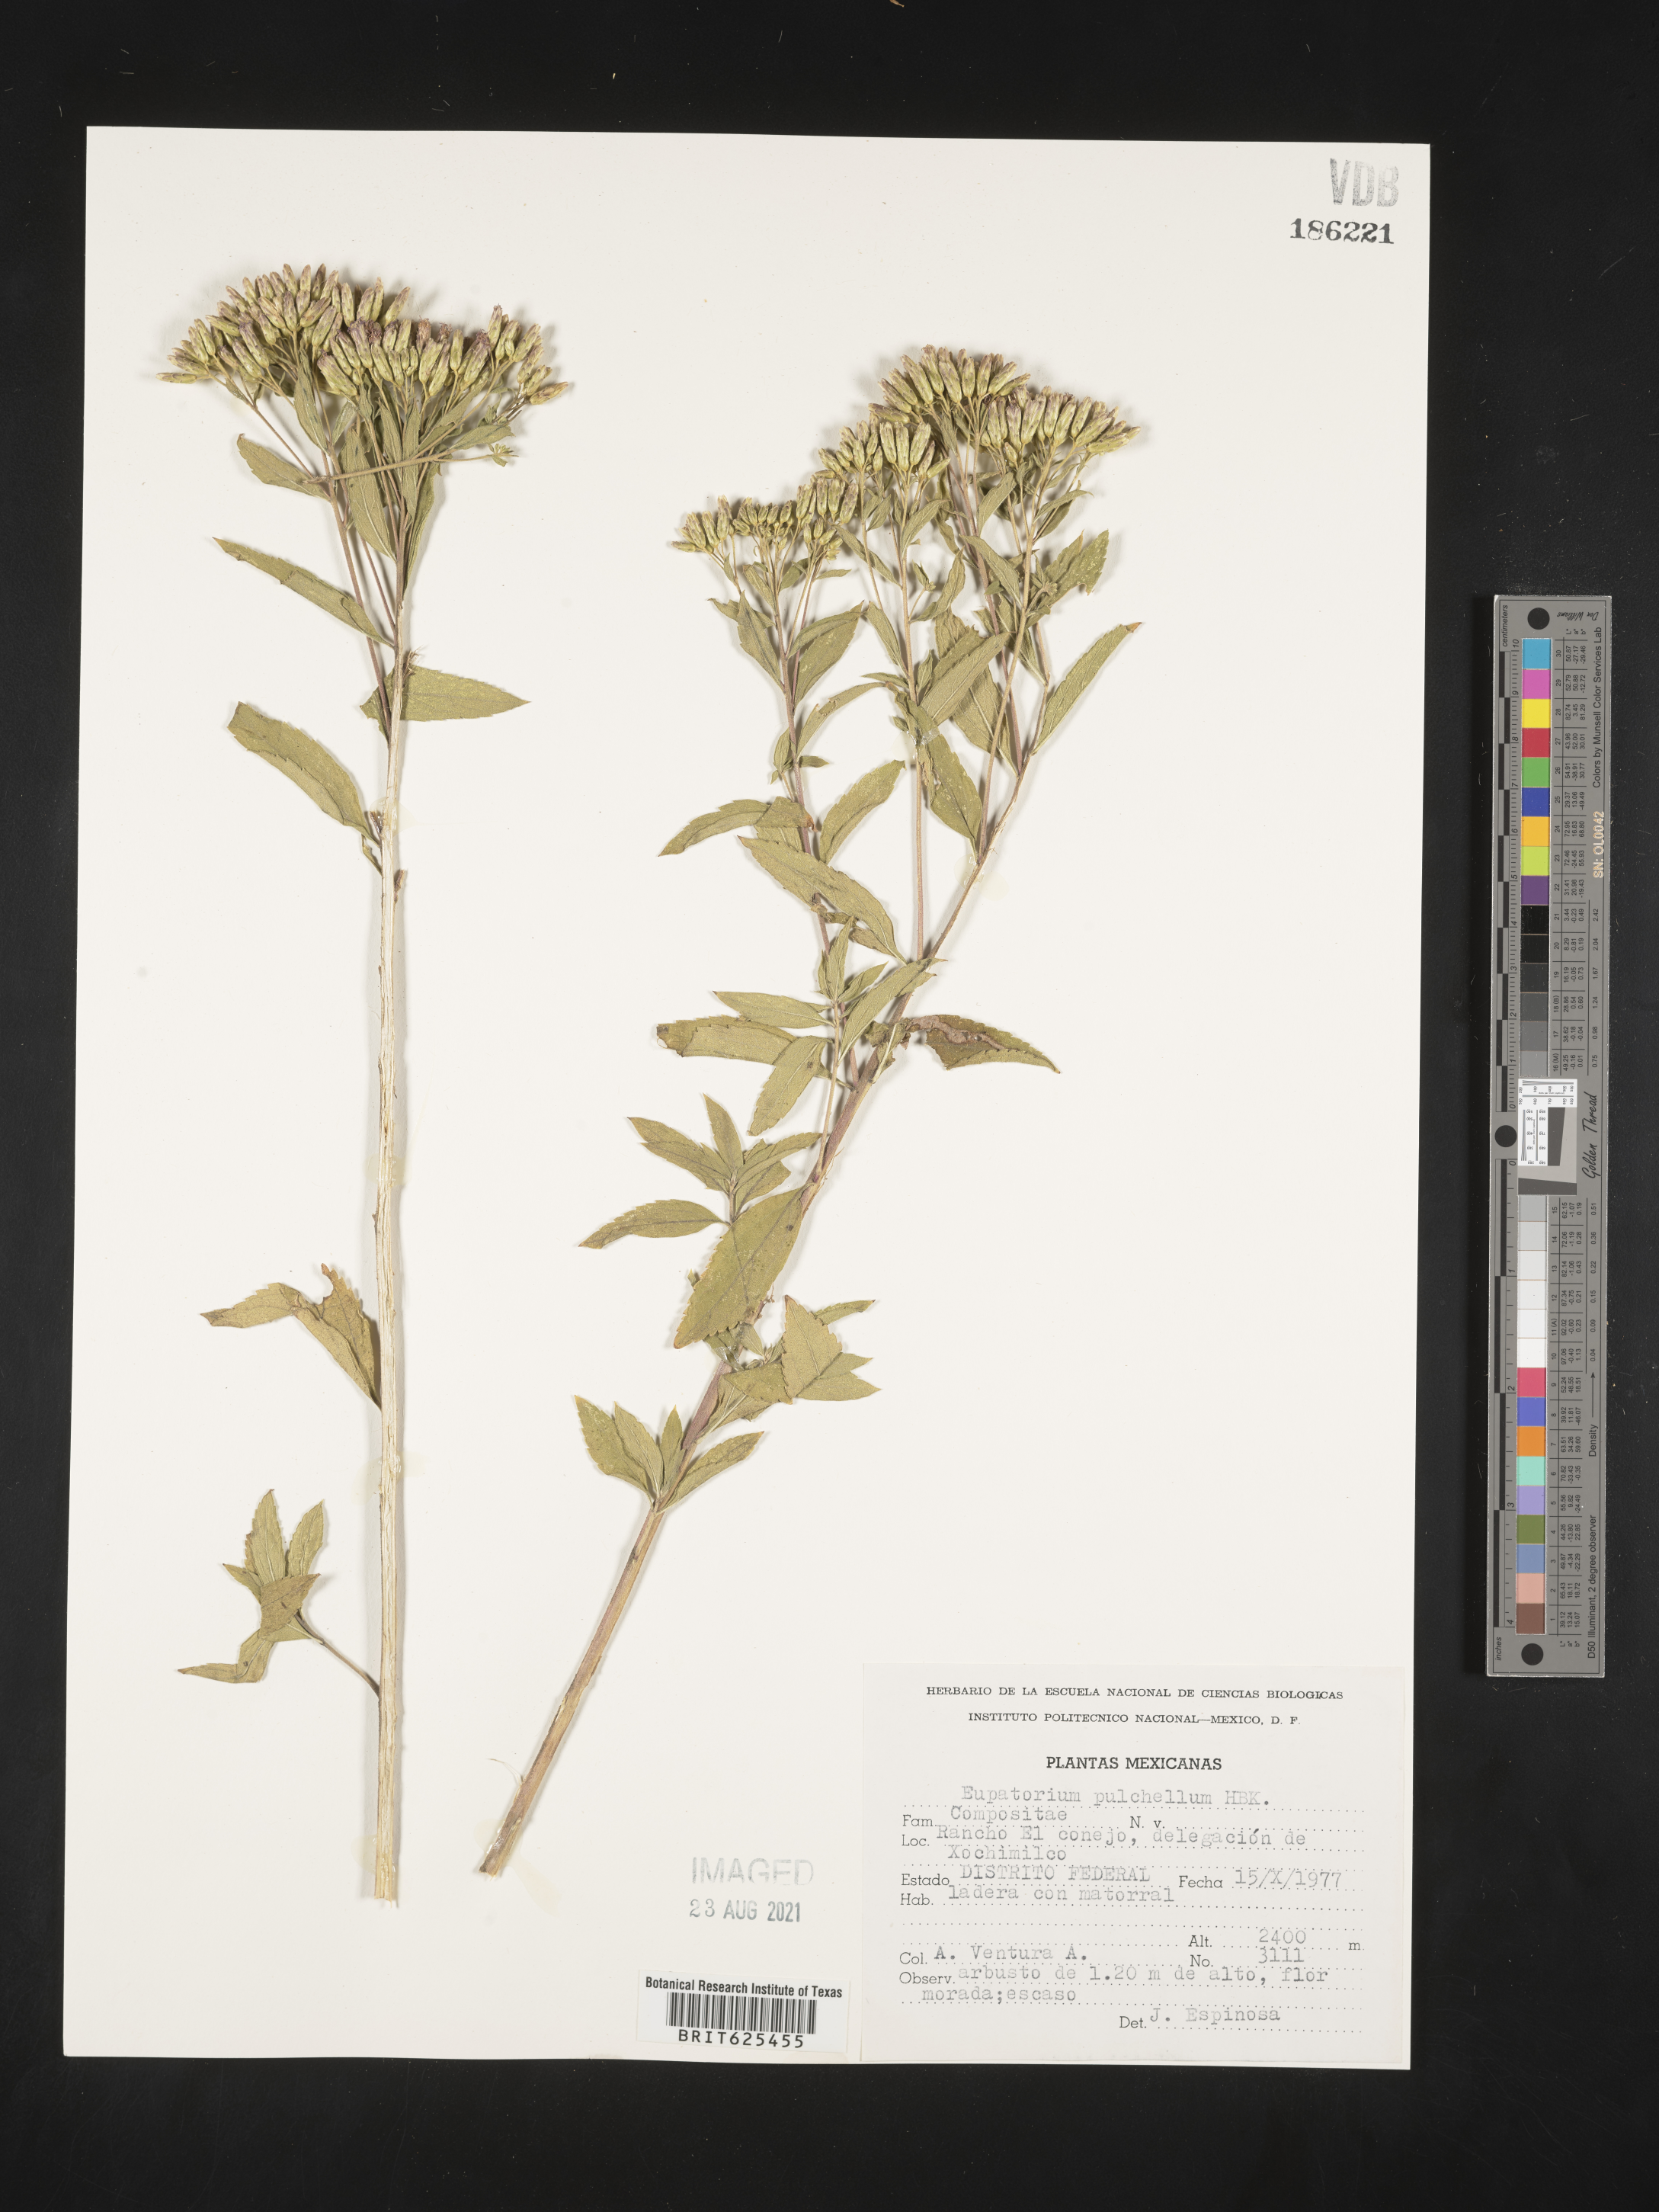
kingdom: Plantae
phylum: Tracheophyta
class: Magnoliopsida
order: Asterales
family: Asteraceae
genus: Eupatorium
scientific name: Eupatorium
